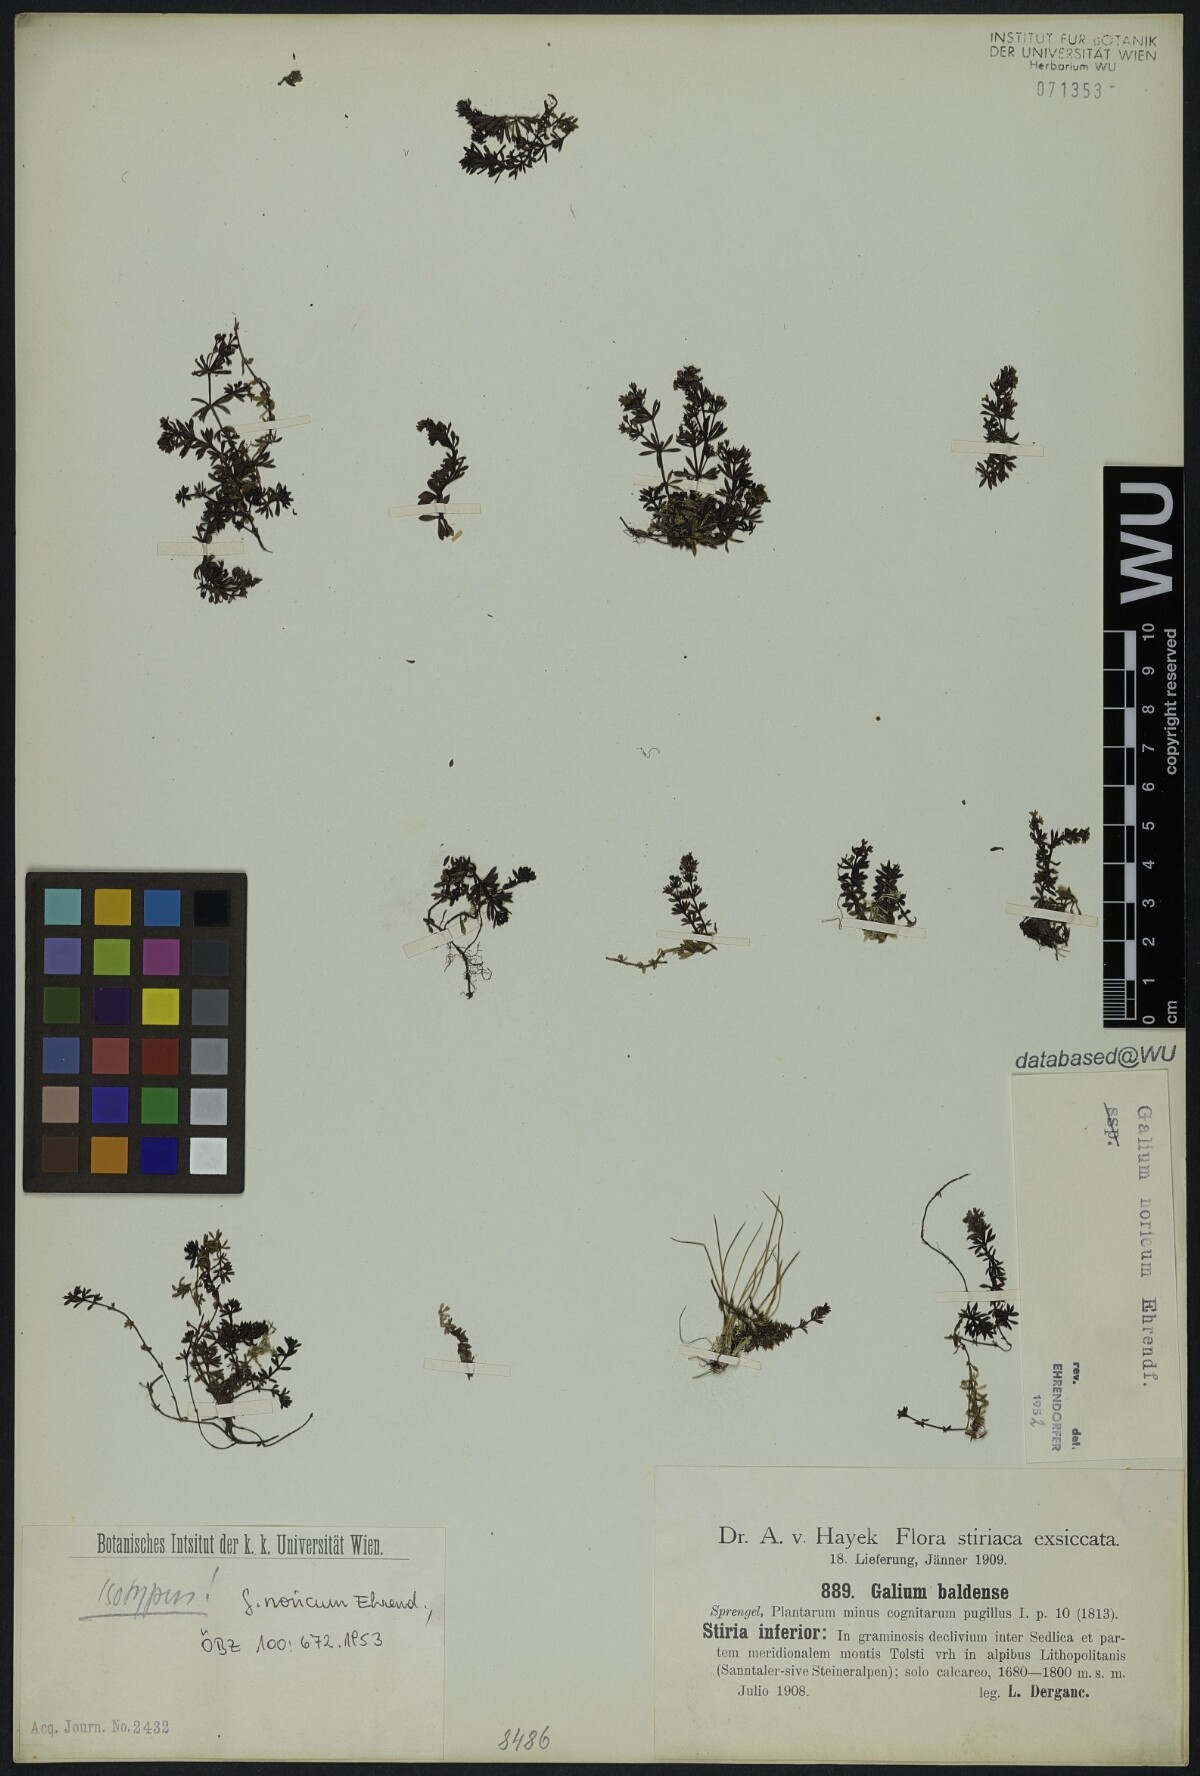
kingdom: Plantae
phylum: Tracheophyta
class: Magnoliopsida
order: Gentianales
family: Rubiaceae
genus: Galium
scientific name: Galium noricum
